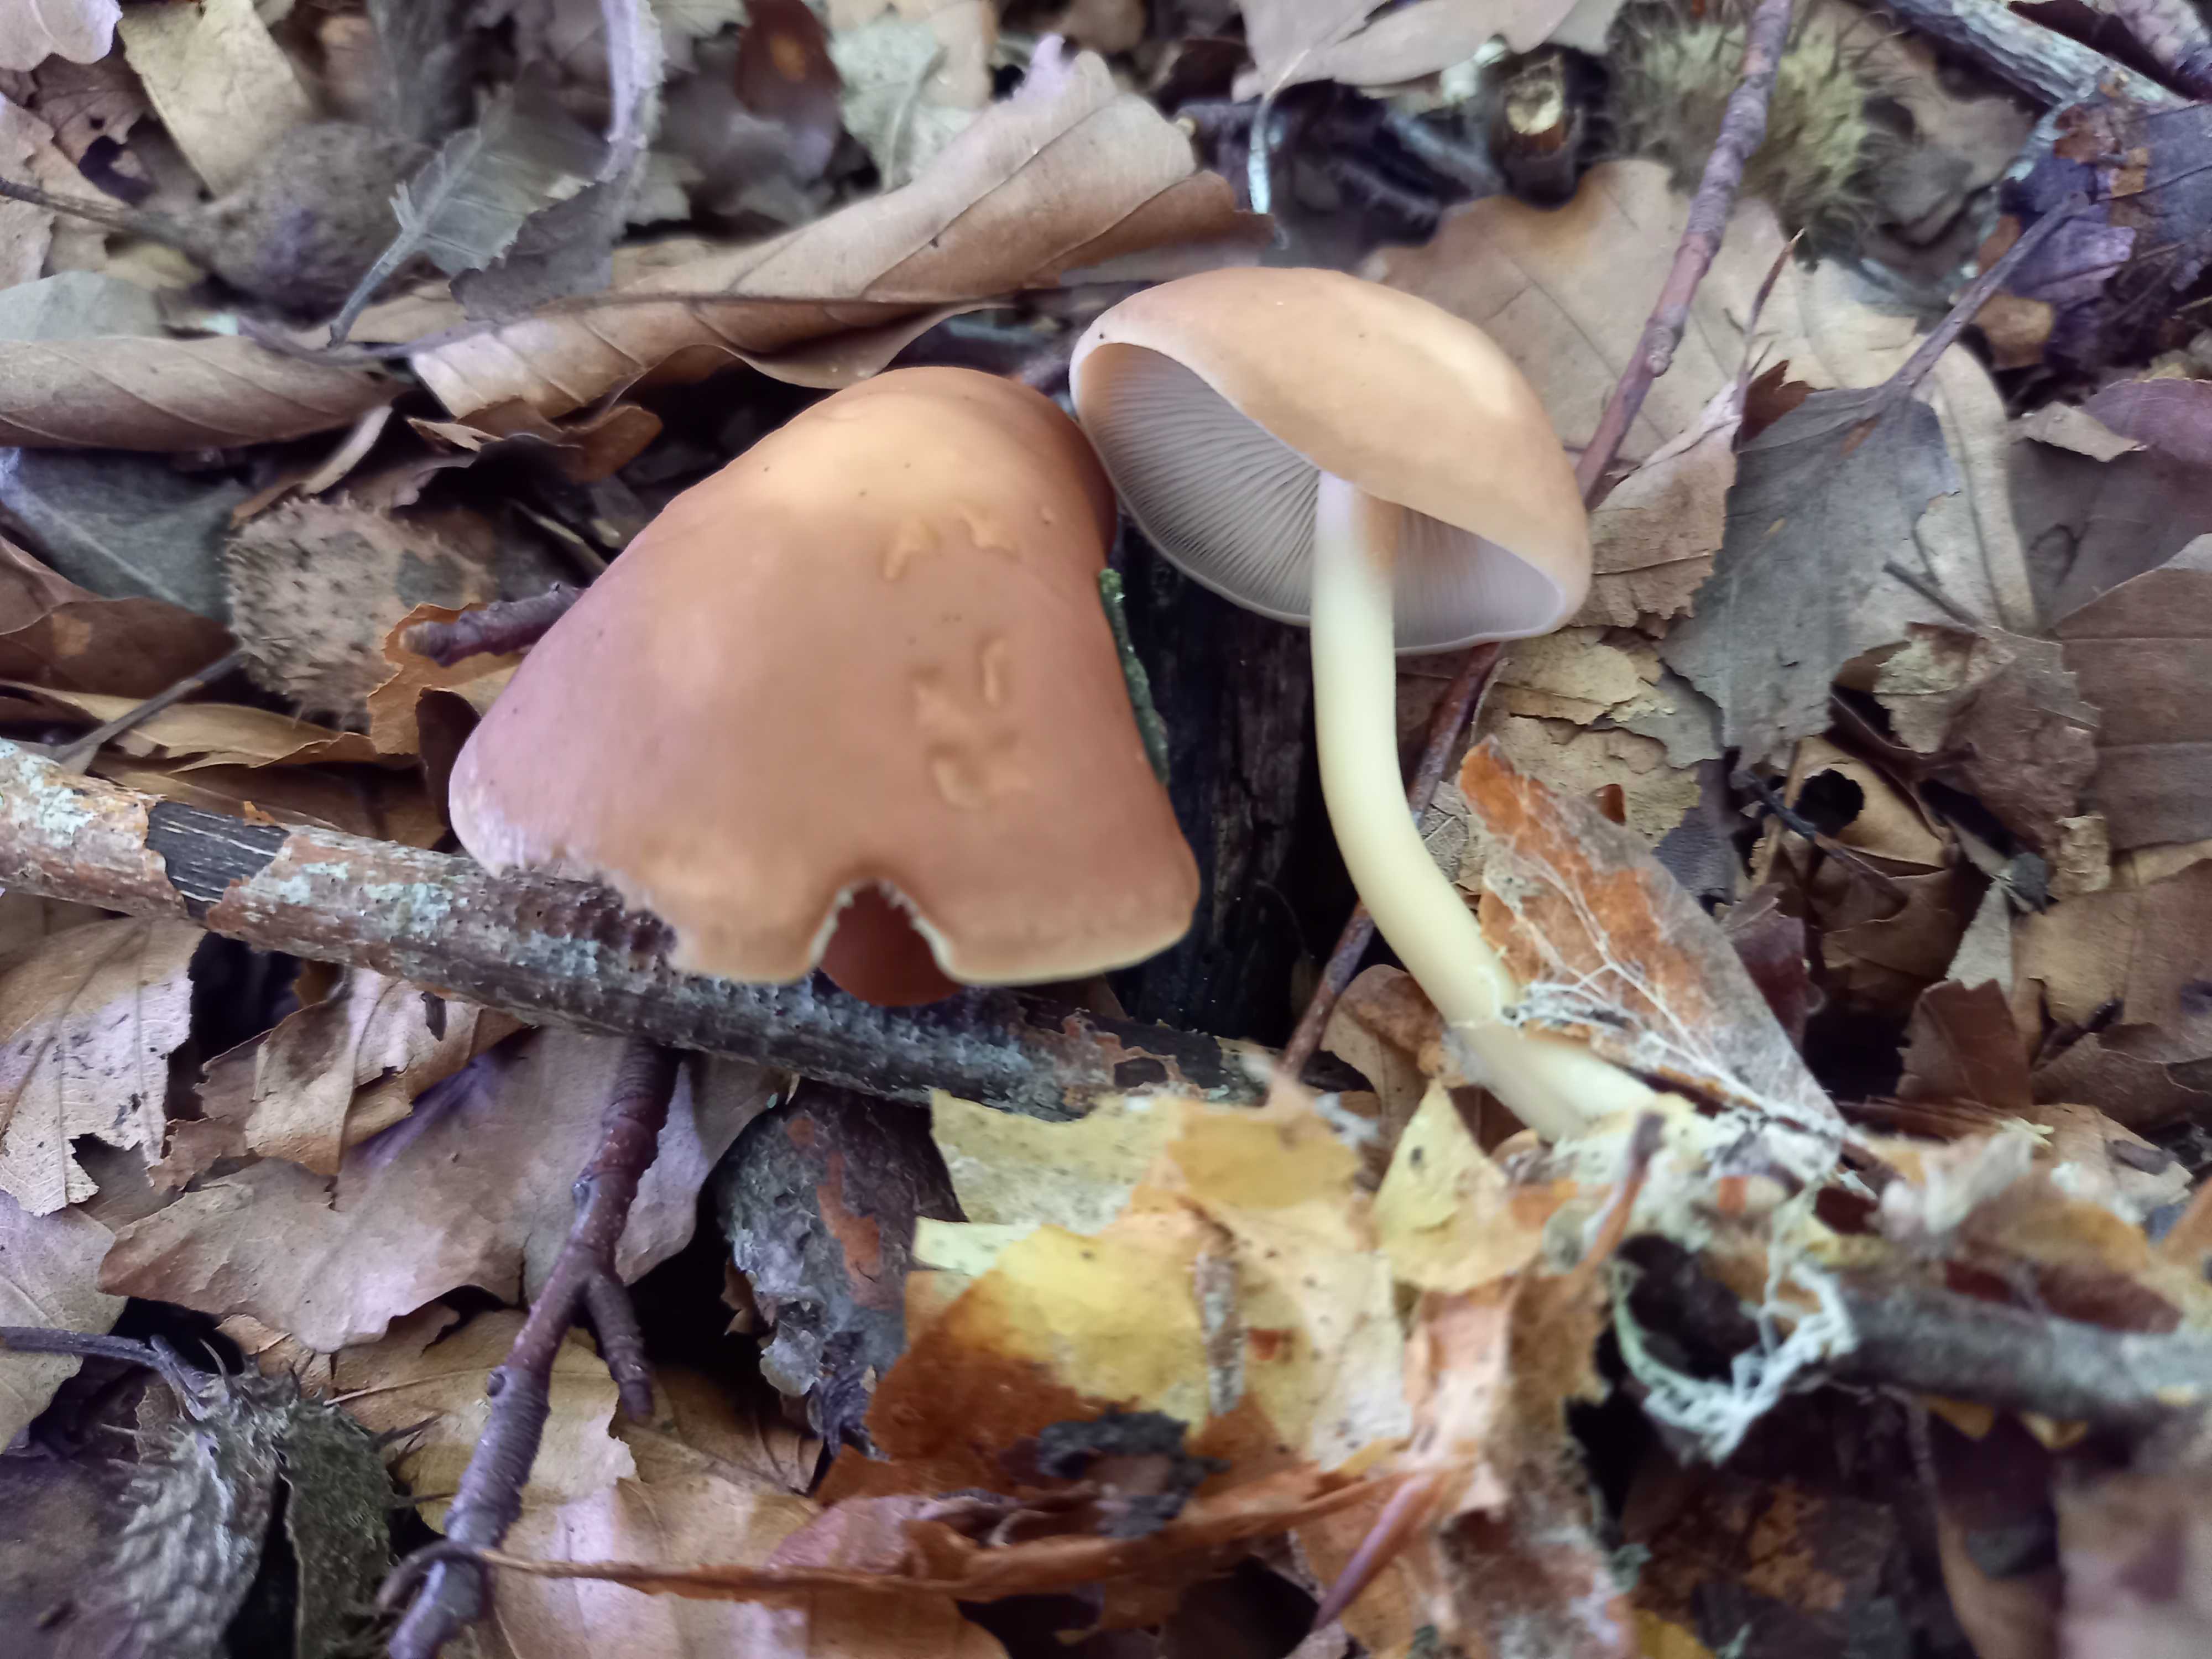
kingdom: Fungi
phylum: Basidiomycota
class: Agaricomycetes
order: Agaricales
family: Omphalotaceae
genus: Gymnopus
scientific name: Gymnopus
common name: fladhat
